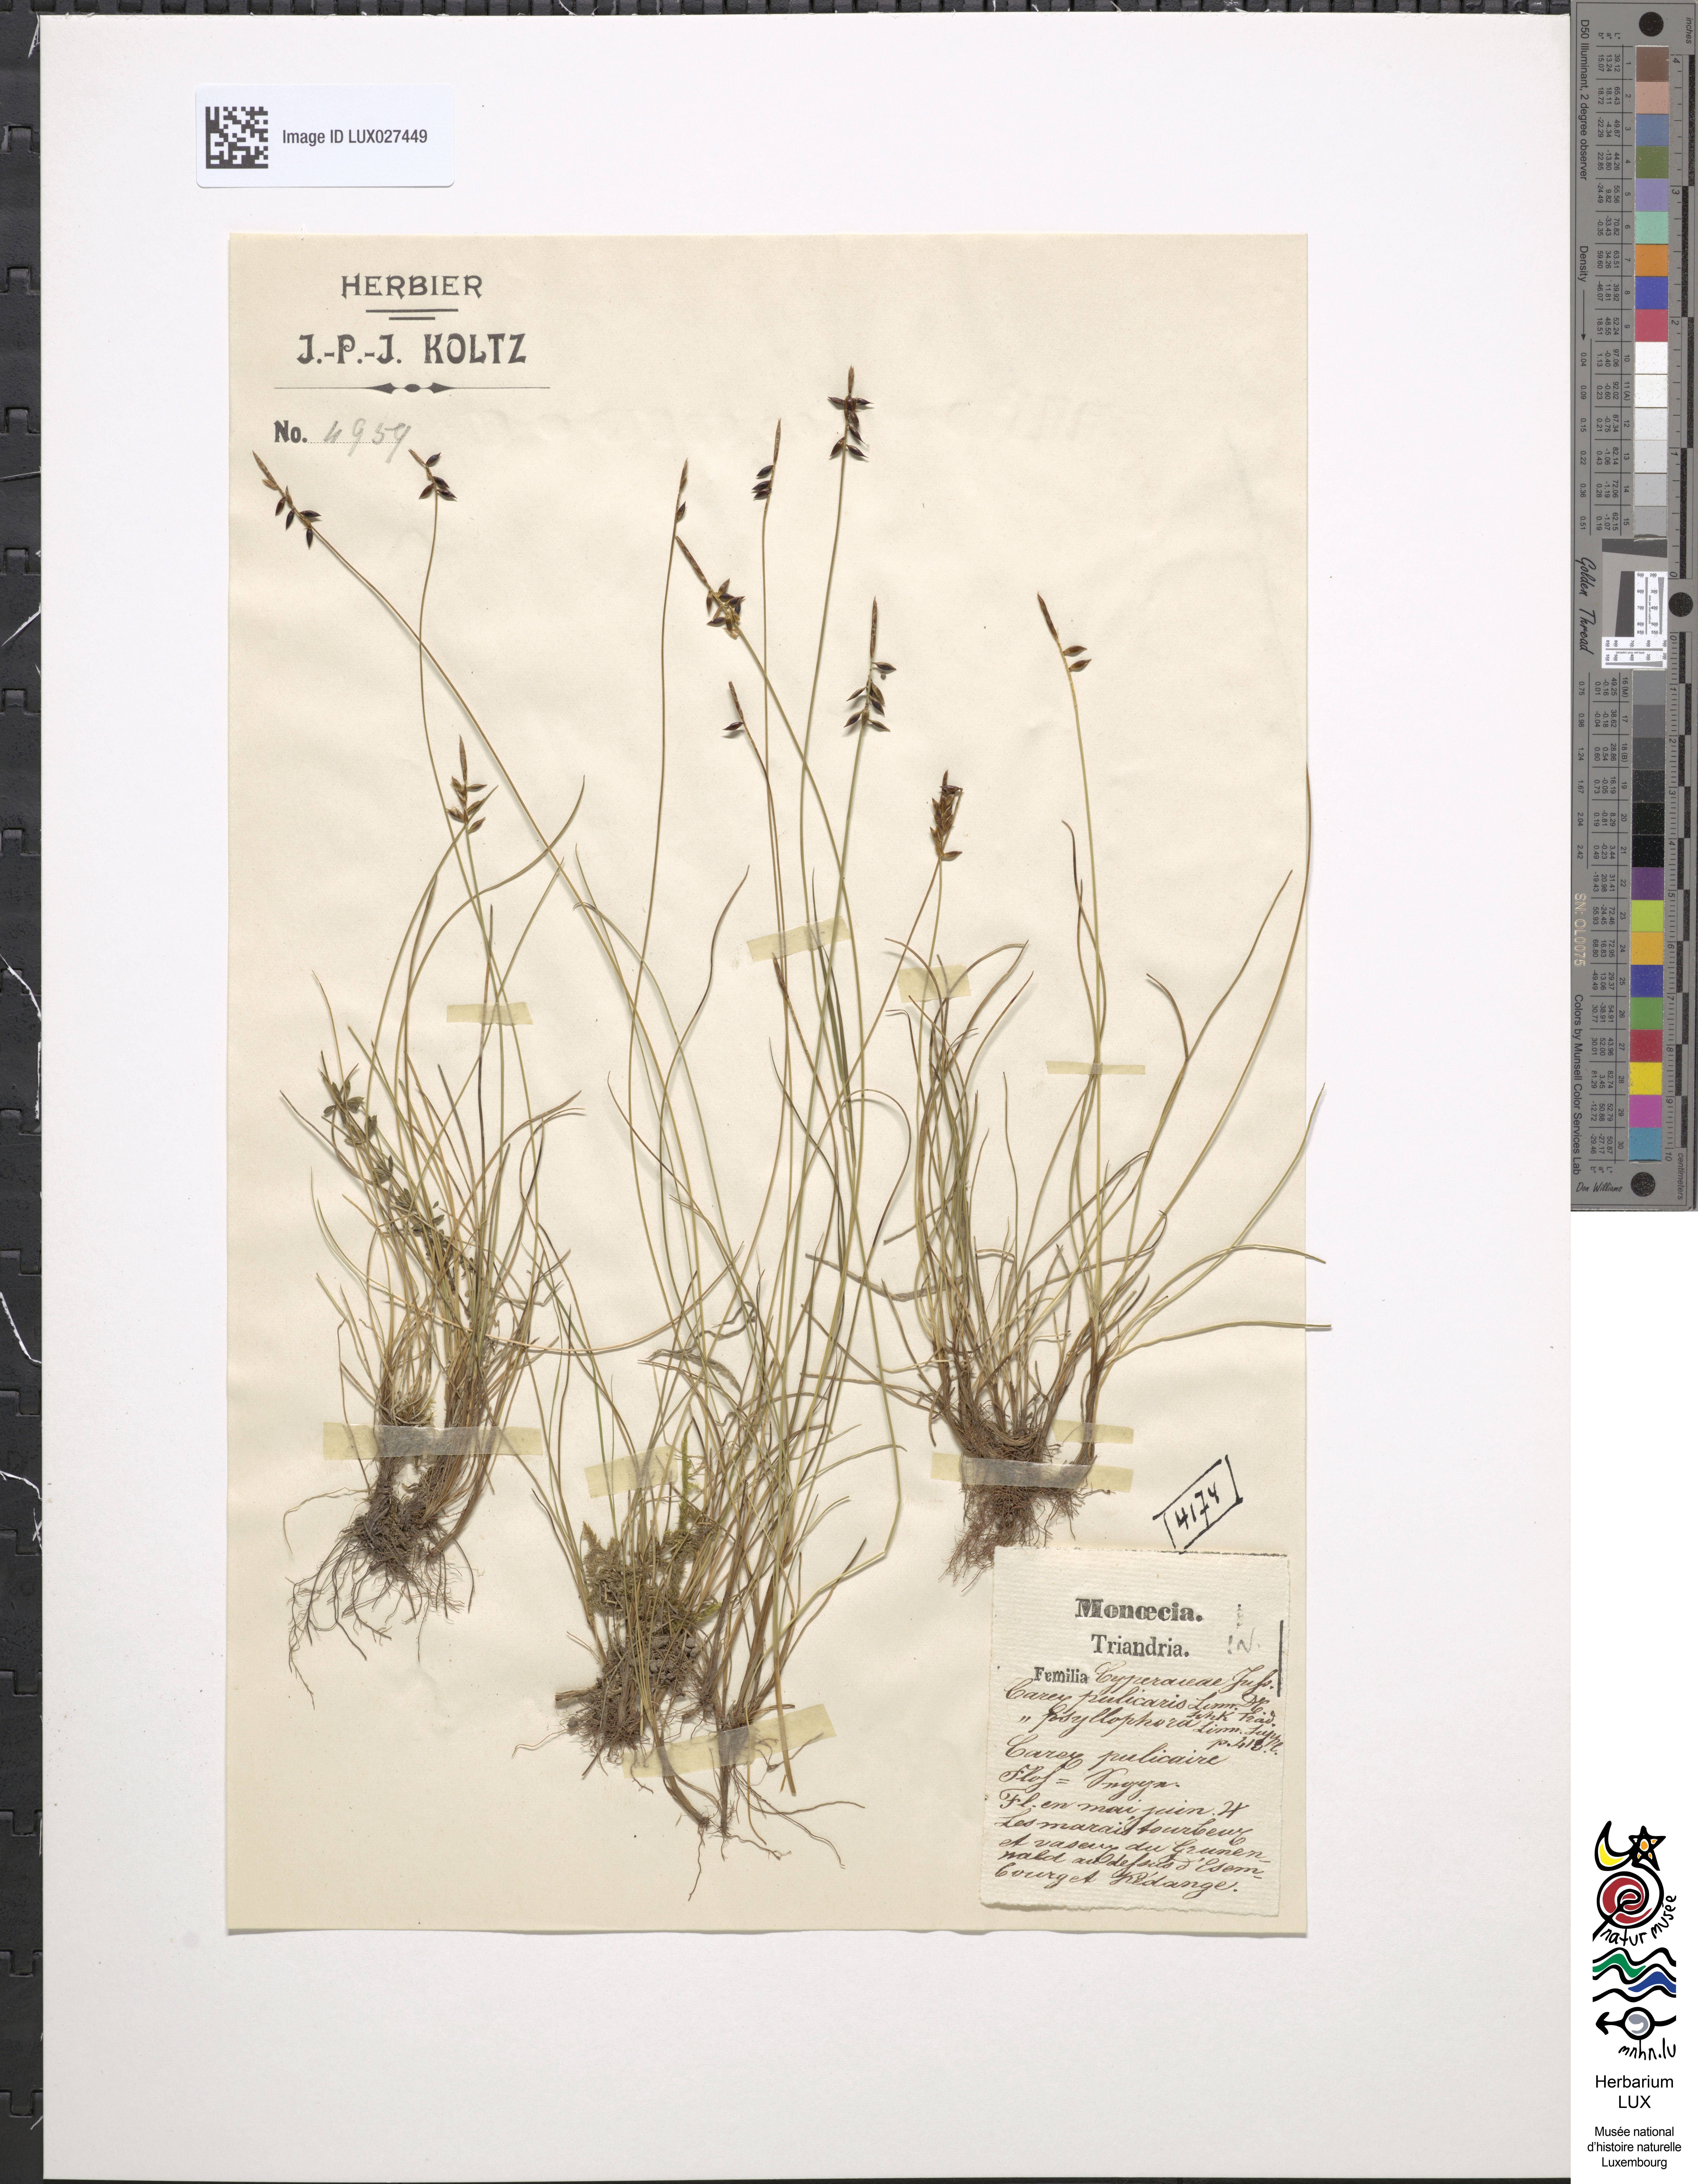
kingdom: Plantae
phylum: Tracheophyta
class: Liliopsida
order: Poales
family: Cyperaceae
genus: Carex
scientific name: Carex pulicaris
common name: Flea sedge
